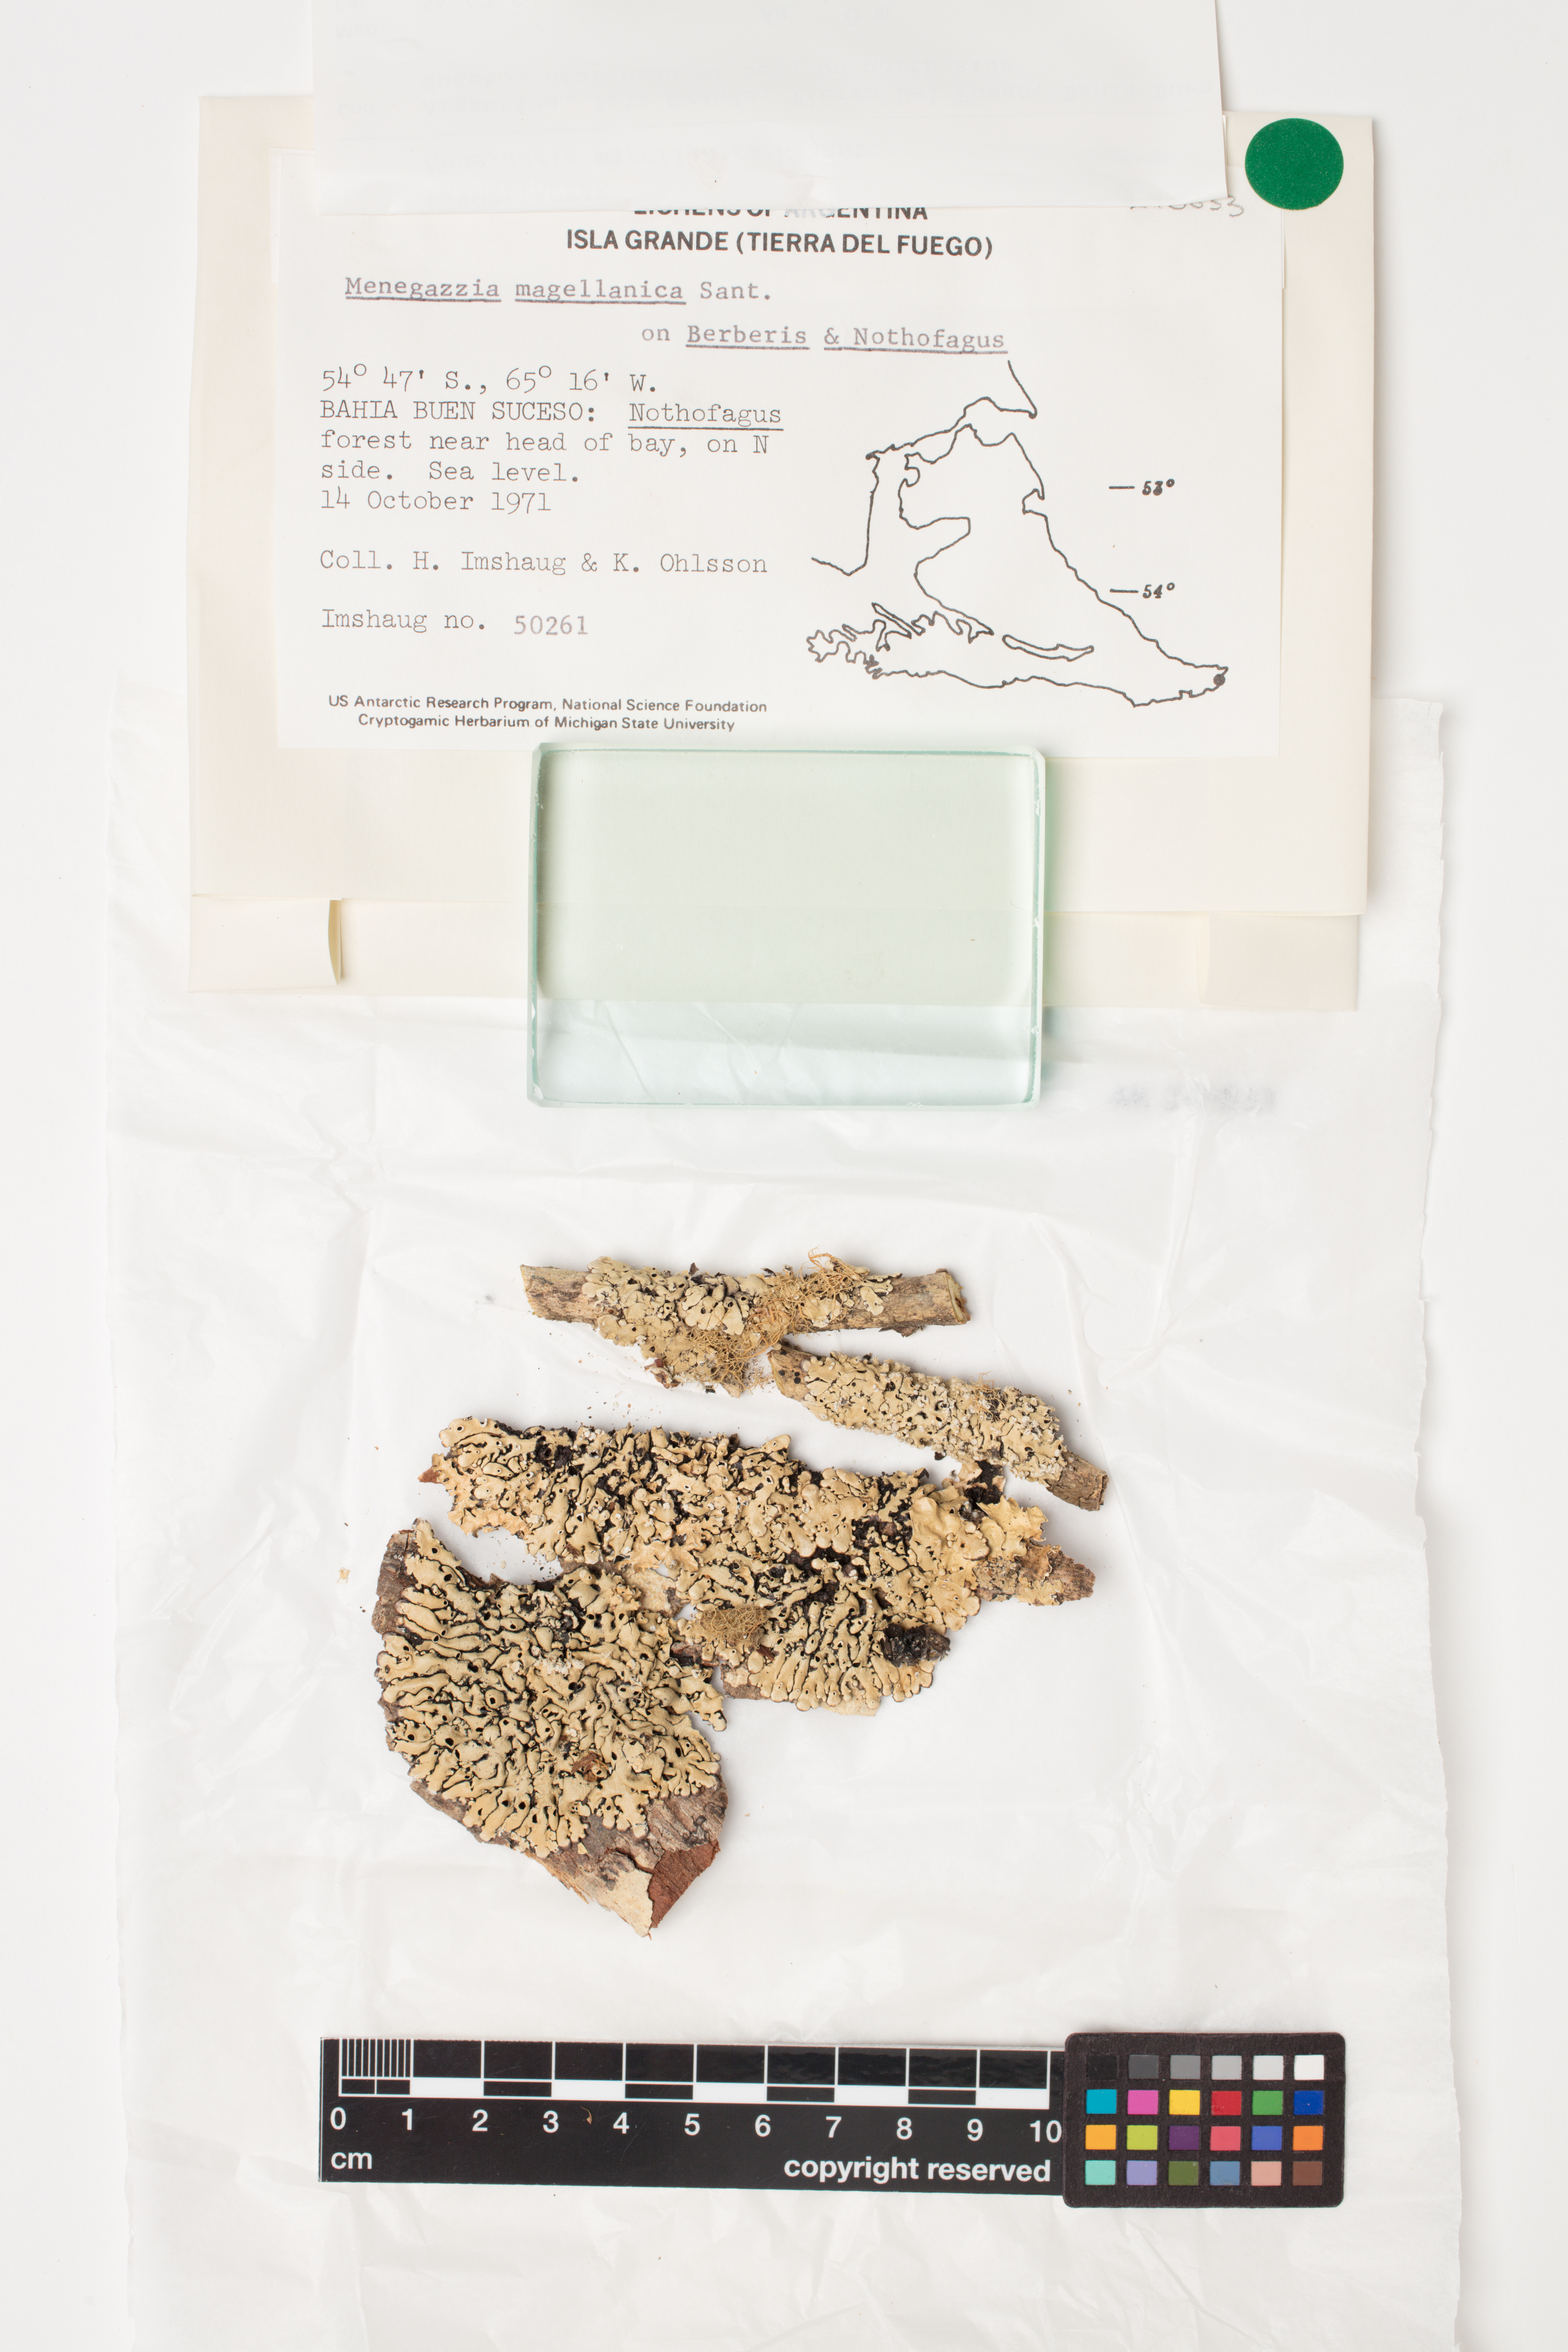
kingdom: Fungi
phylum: Ascomycota
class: Lecanoromycetes
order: Lecanorales
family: Parmeliaceae
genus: Menegazzia
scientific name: Menegazzia subpertusa
